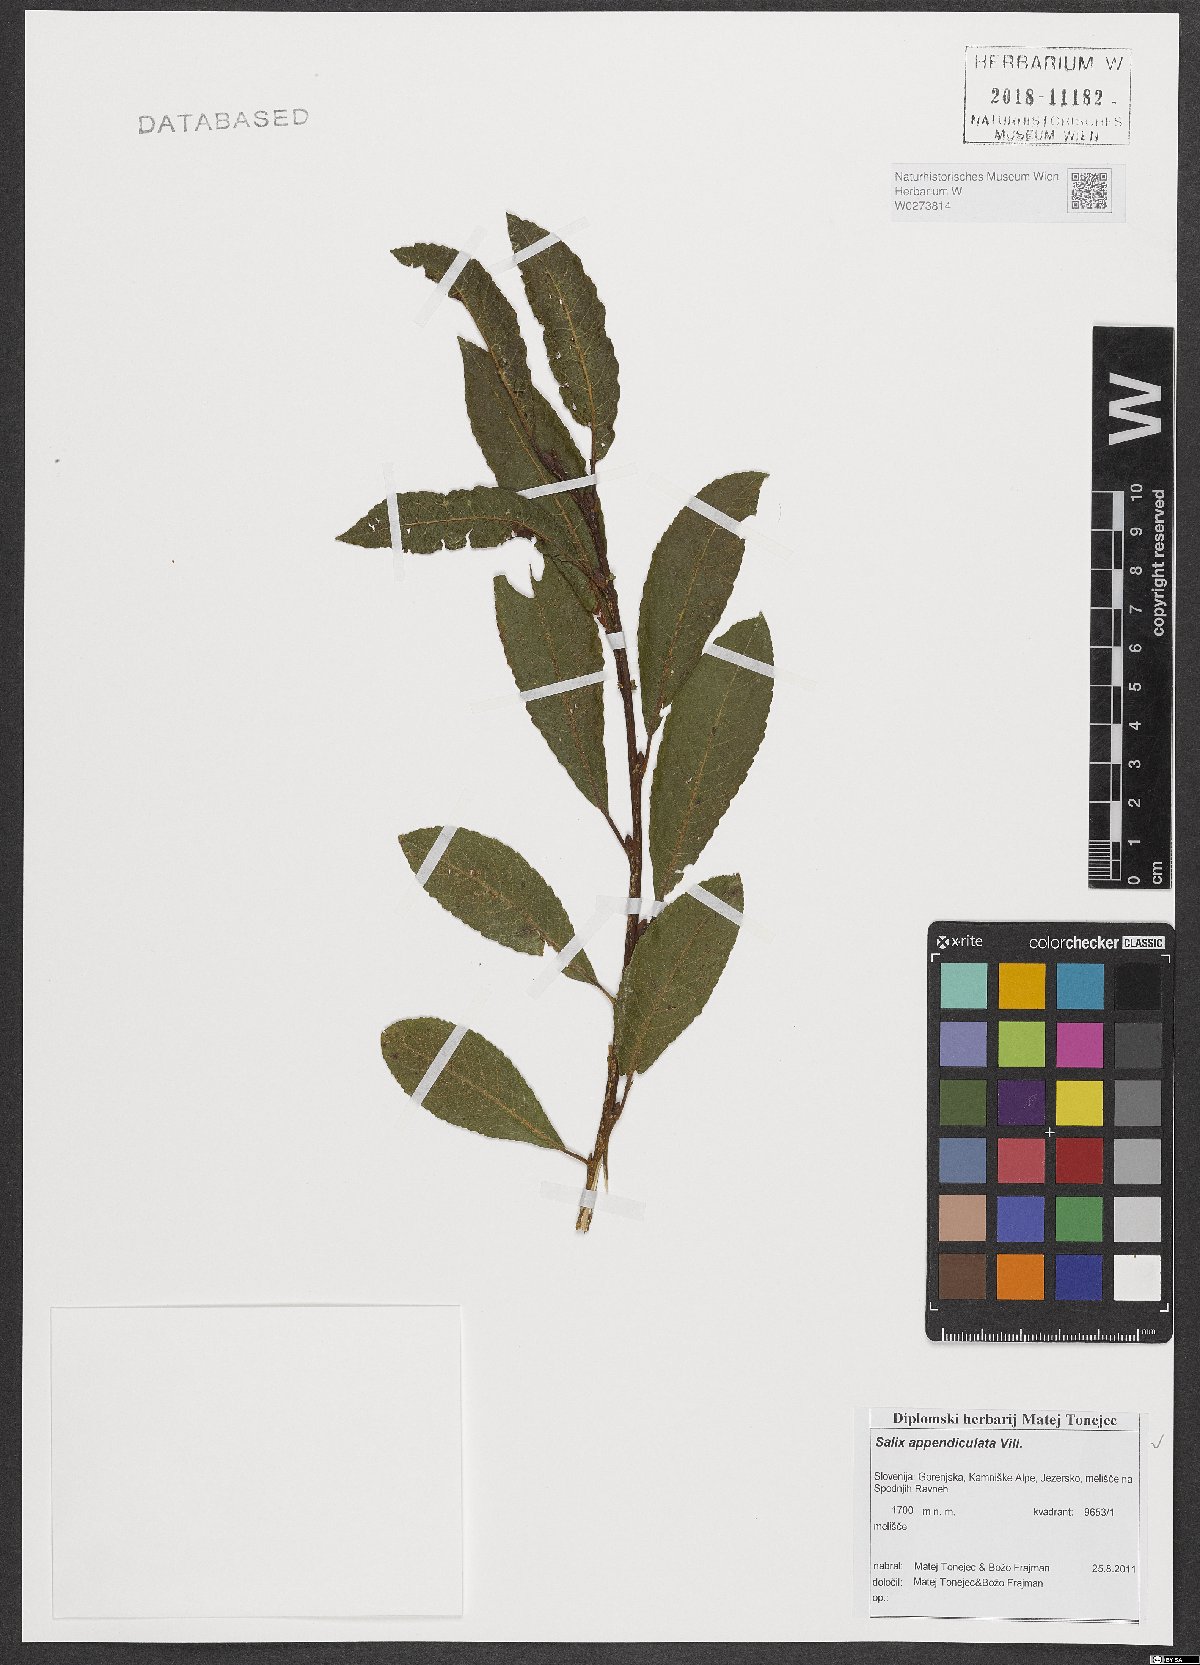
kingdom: Plantae
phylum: Tracheophyta
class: Magnoliopsida
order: Malpighiales
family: Salicaceae
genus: Salix
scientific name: Salix appendiculata
